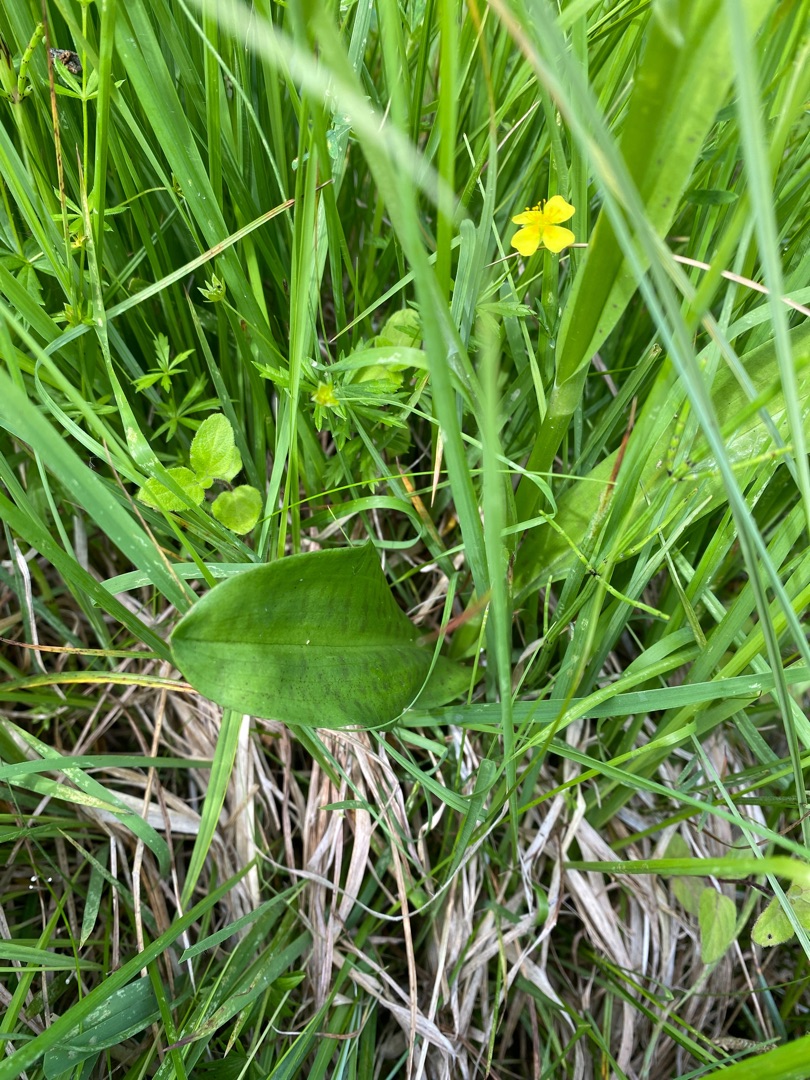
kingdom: Plantae
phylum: Tracheophyta
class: Liliopsida
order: Asparagales
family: Orchidaceae
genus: Dactylorhiza
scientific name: Dactylorhiza maculata
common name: Skov-gøgeurt
